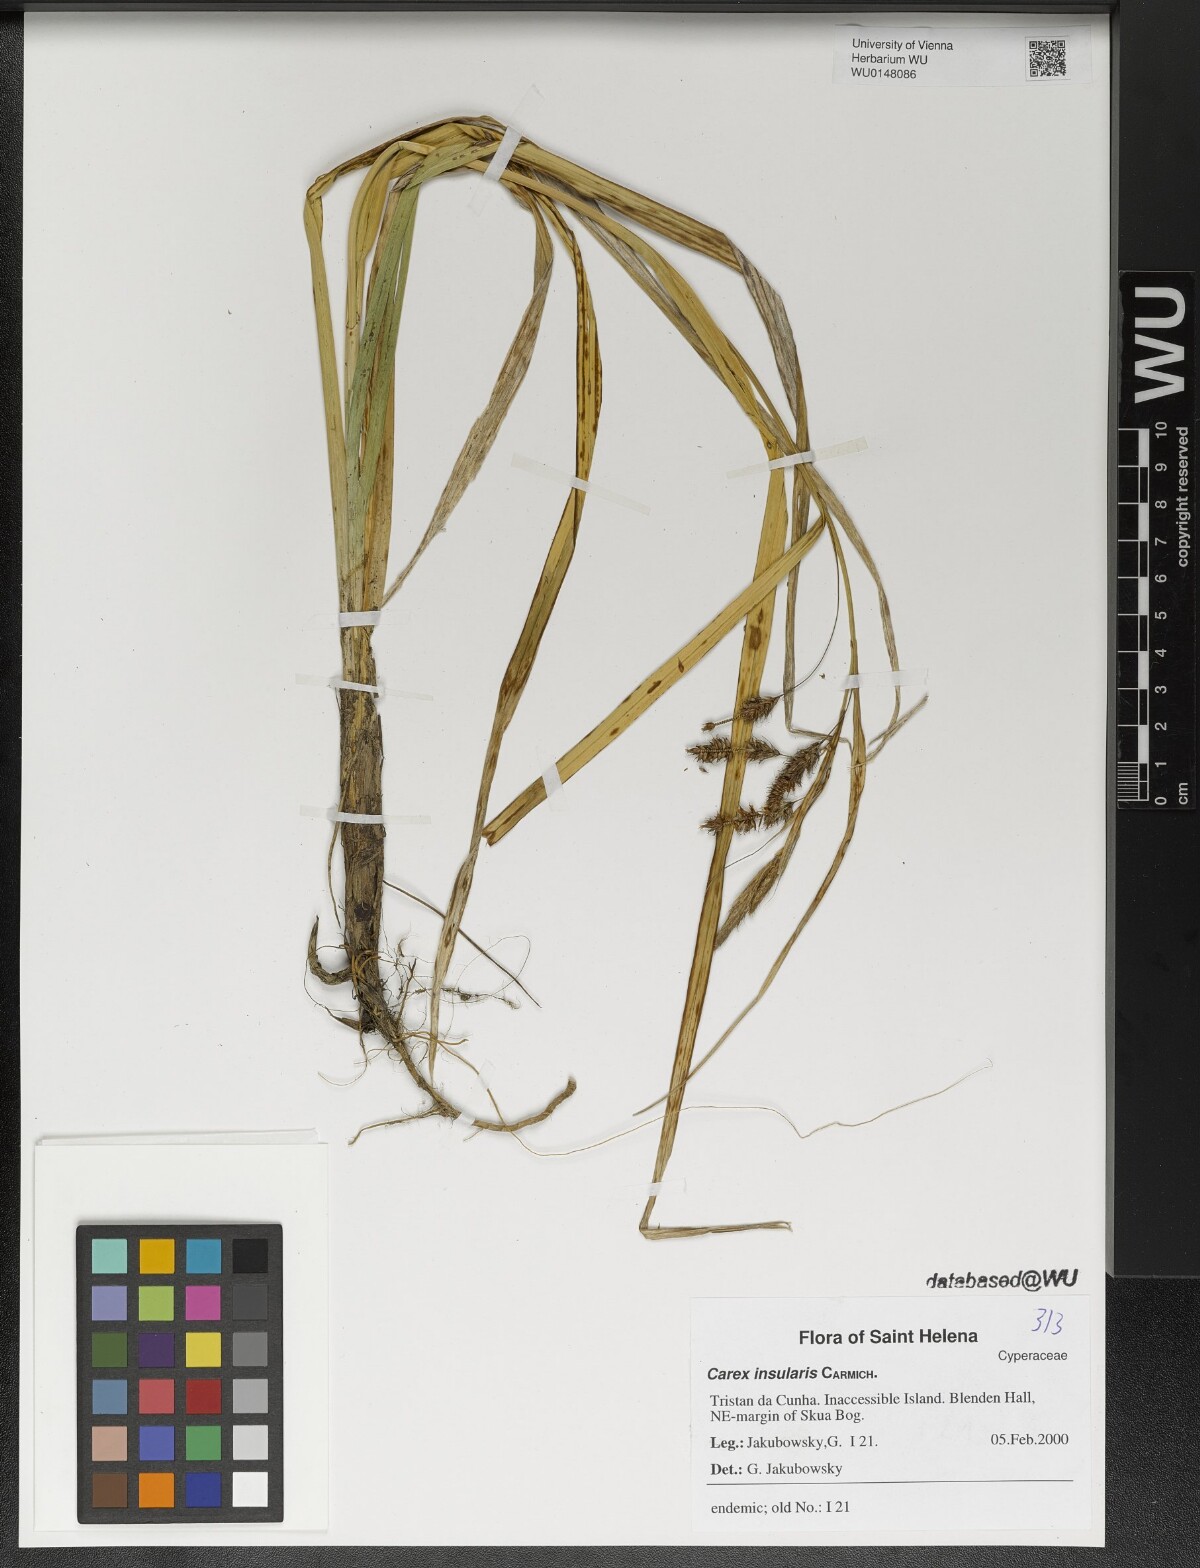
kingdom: Plantae
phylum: Tracheophyta
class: Liliopsida
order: Poales
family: Cyperaceae
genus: Carex
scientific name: Carex insularis
